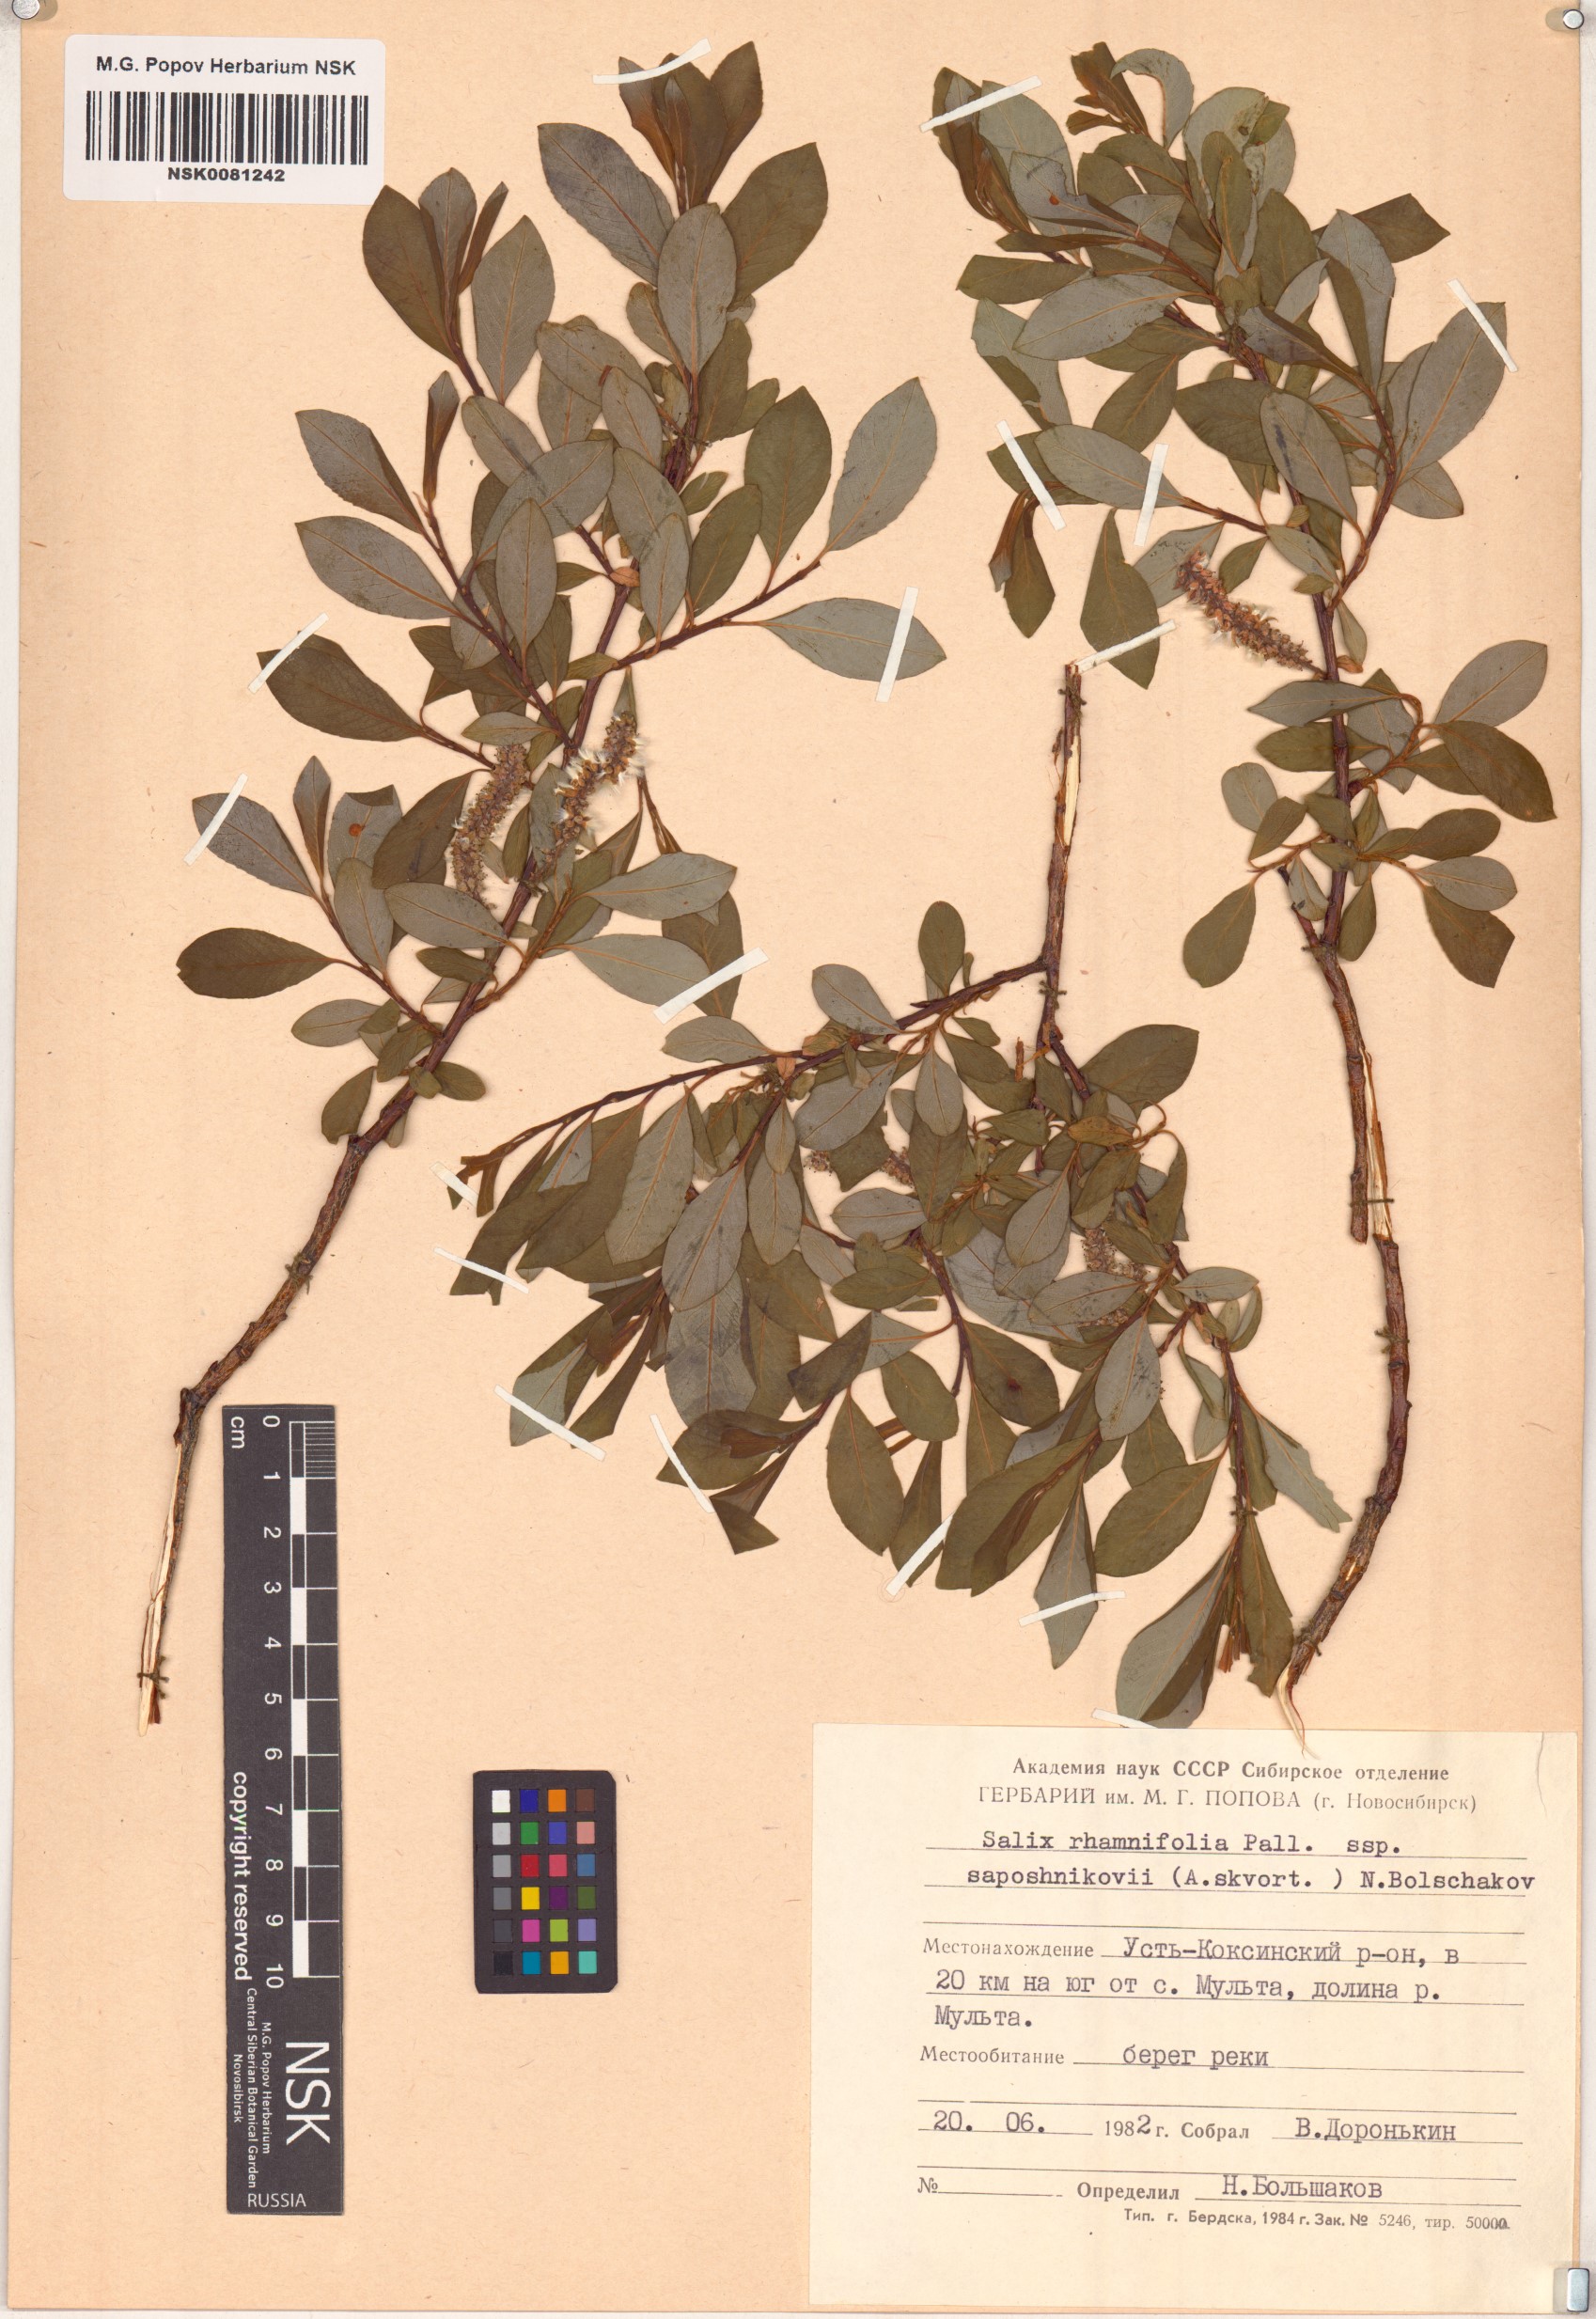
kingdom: Plantae
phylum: Tracheophyta
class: Magnoliopsida
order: Malpighiales
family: Salicaceae
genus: Salix
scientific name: Salix saposhnikovii
